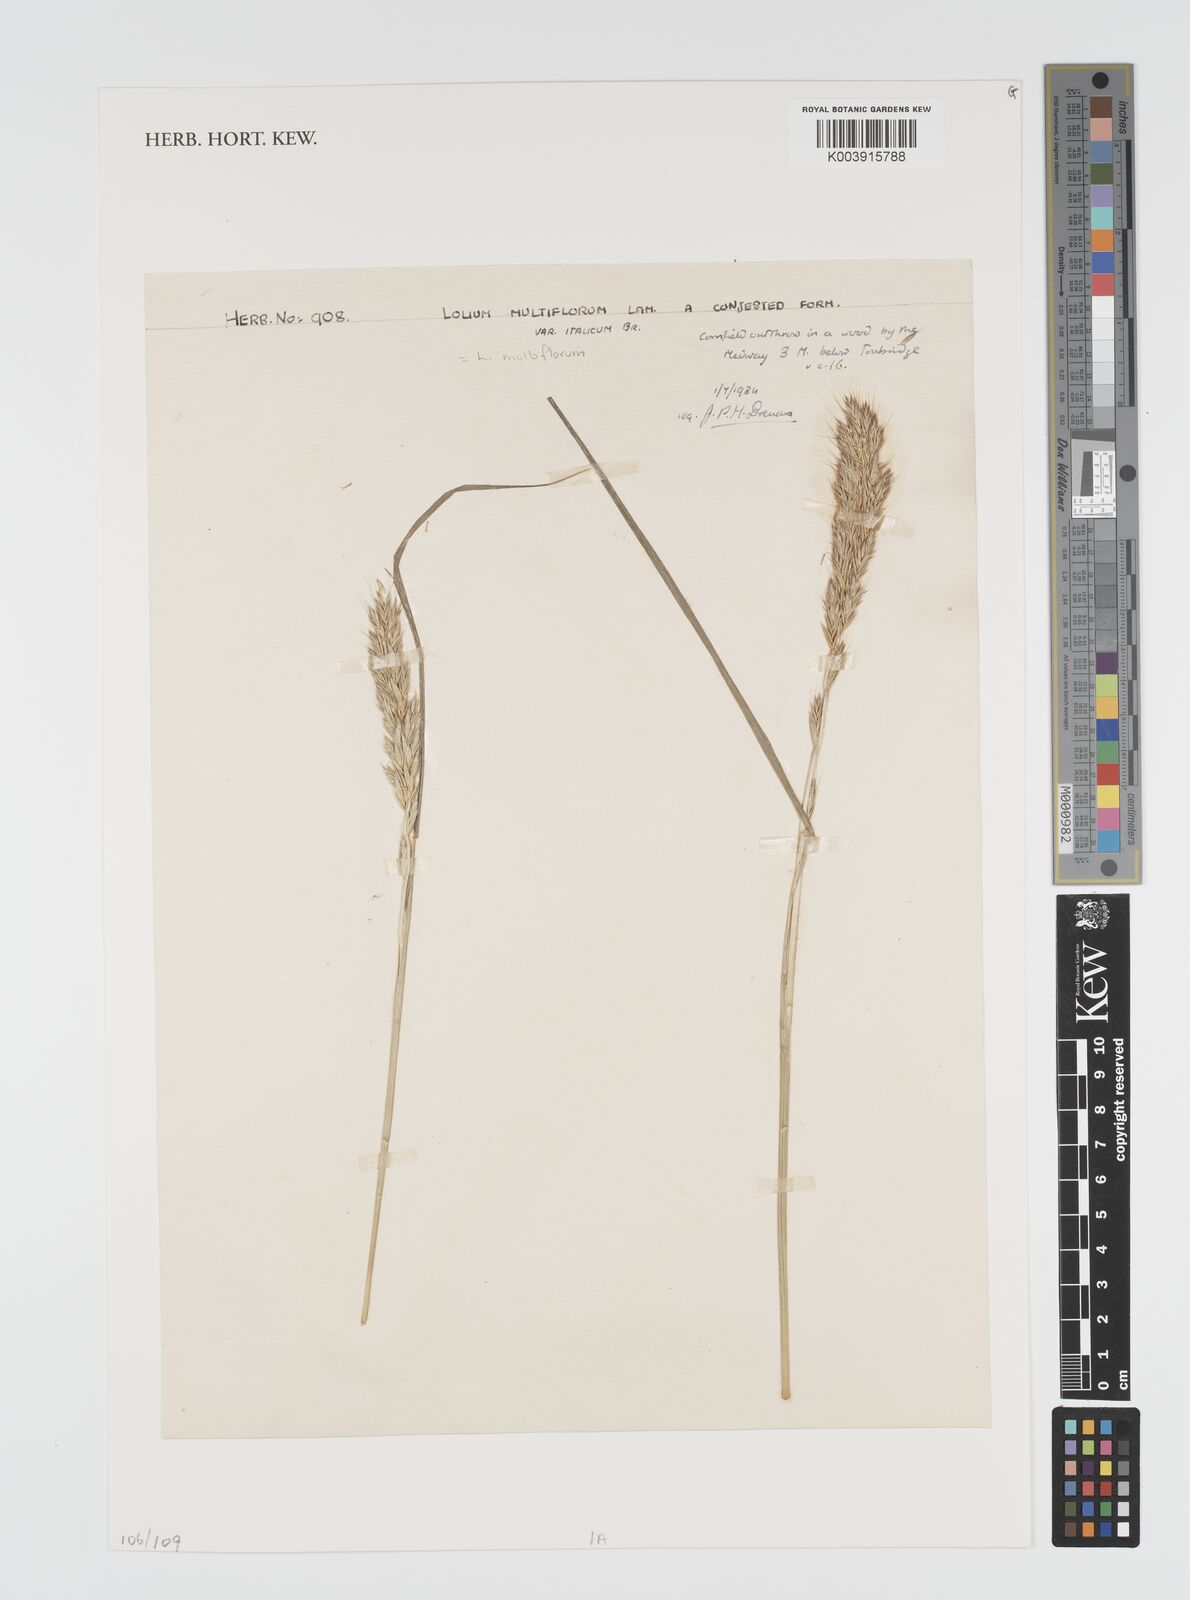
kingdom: Plantae
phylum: Tracheophyta
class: Liliopsida
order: Poales
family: Poaceae
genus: Lolium
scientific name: Lolium multiflorum
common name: Annual ryegrass
